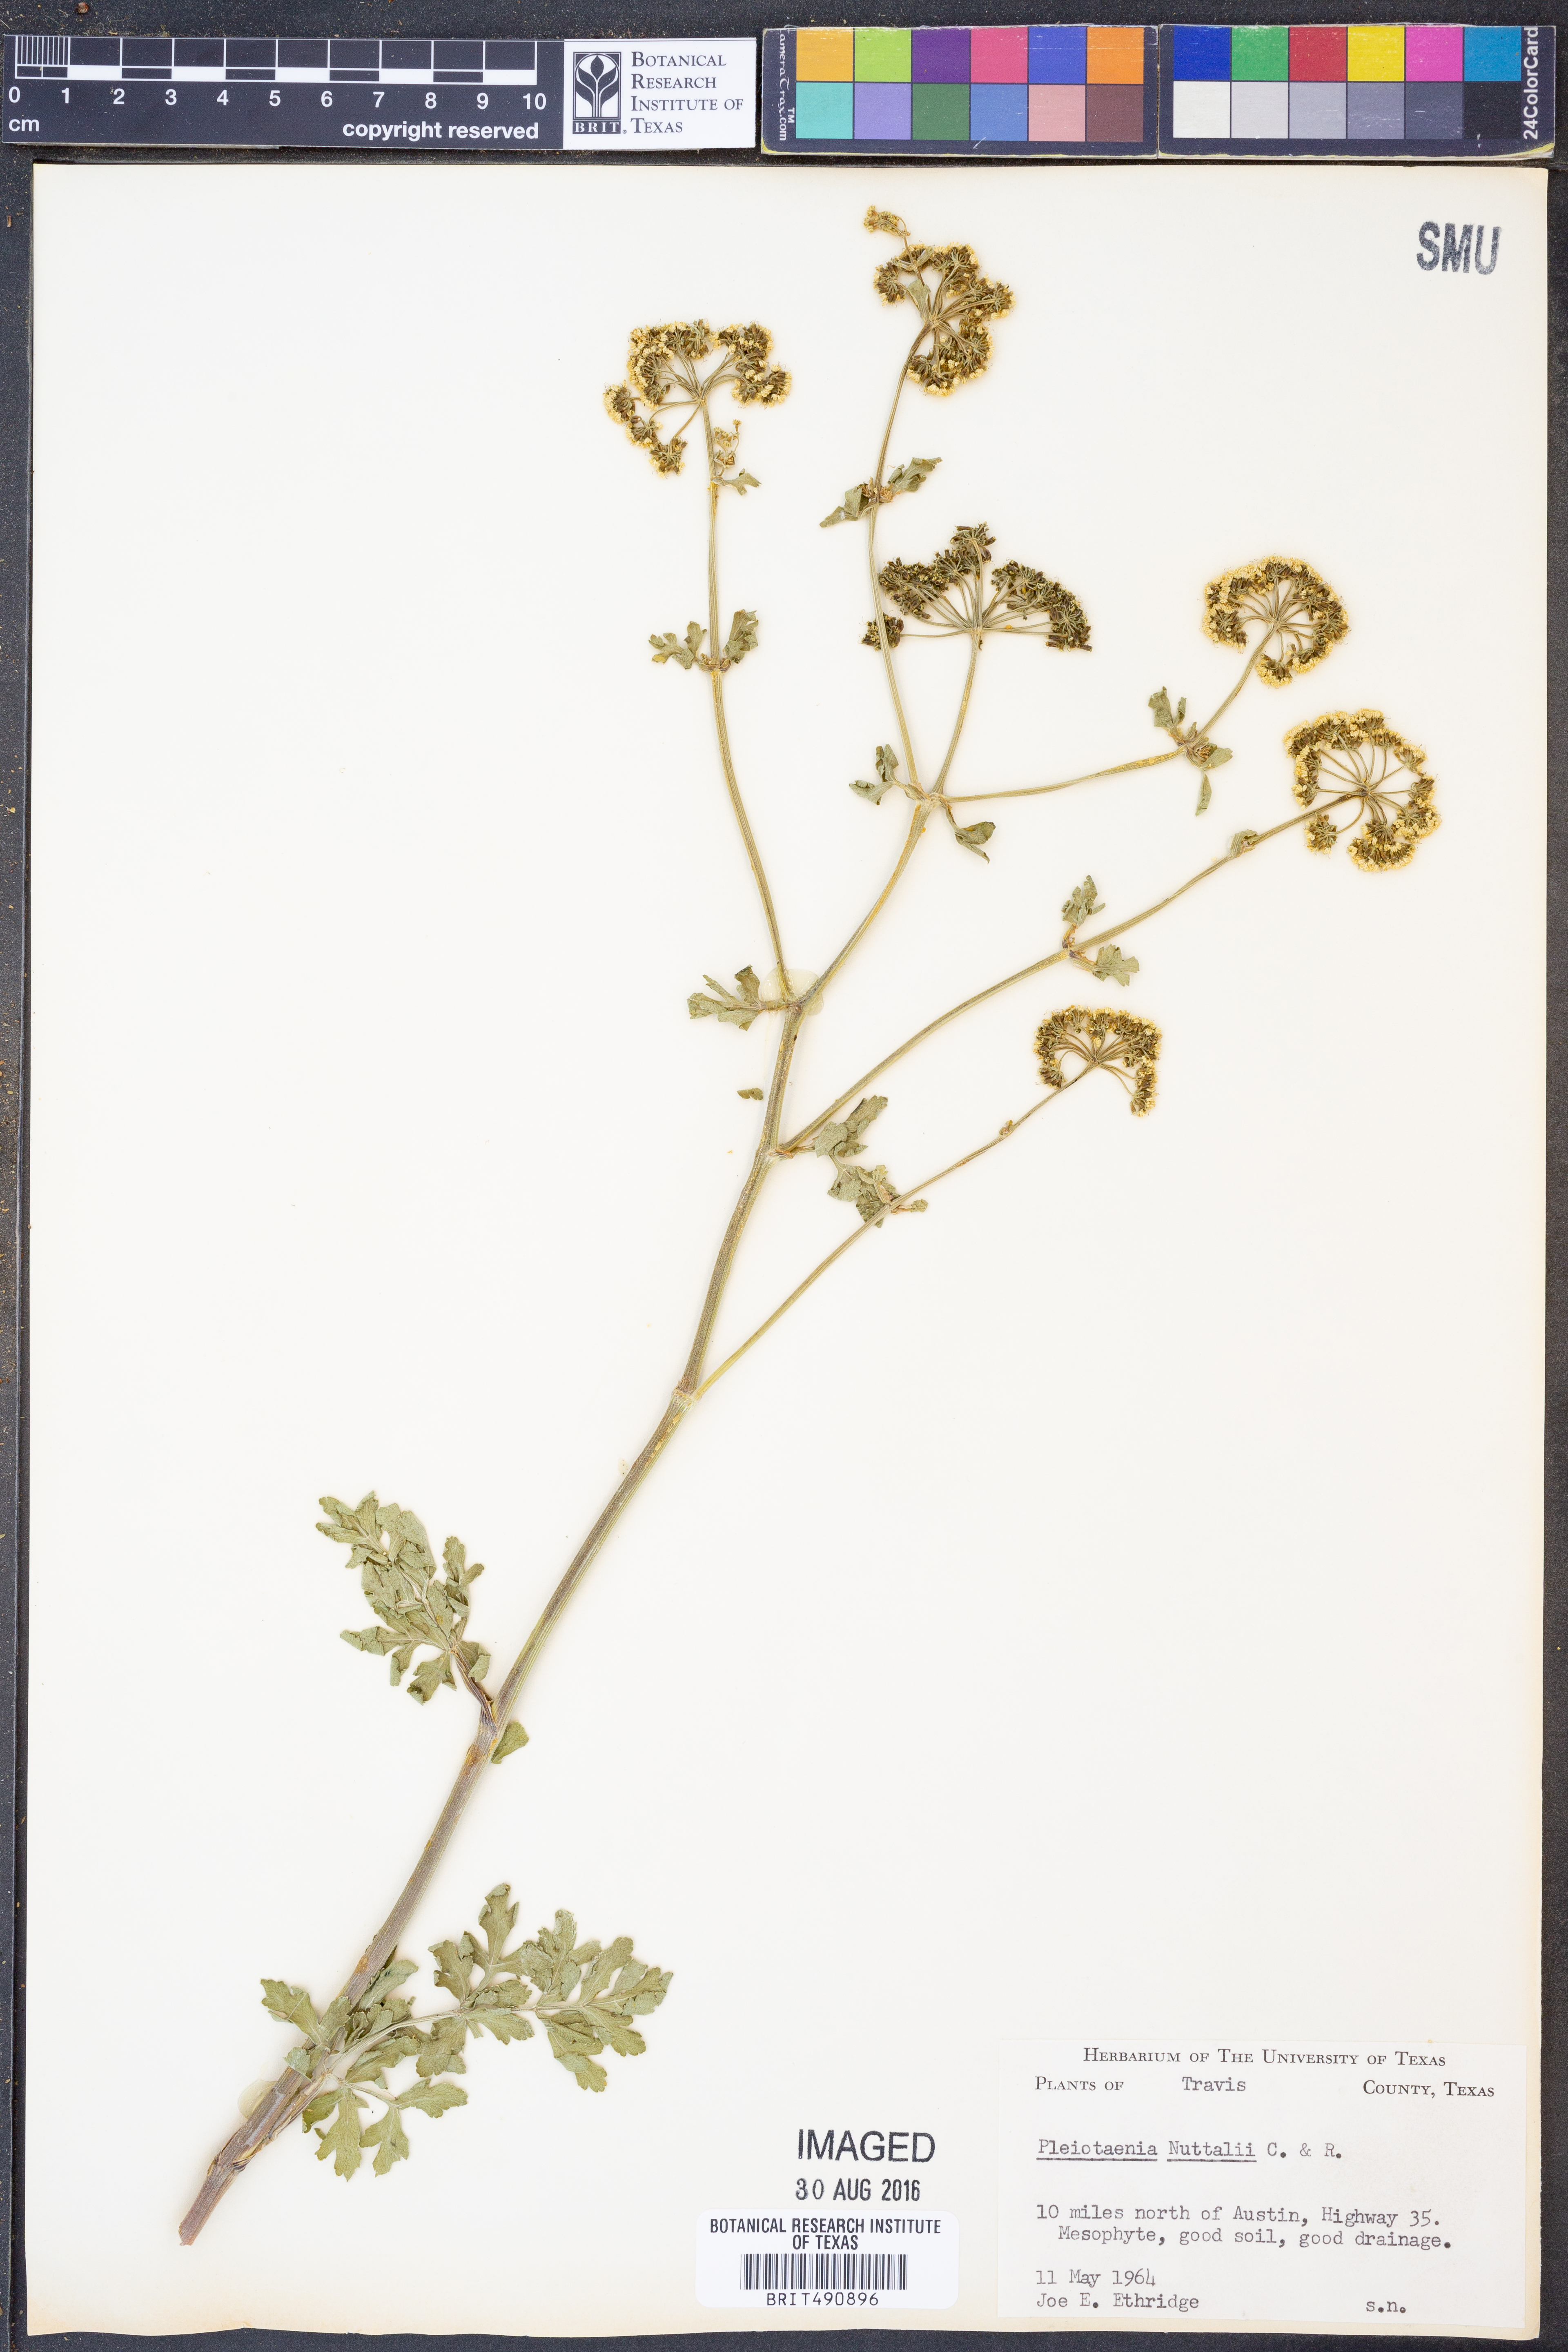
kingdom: Plantae
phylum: Tracheophyta
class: Magnoliopsida
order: Apiales
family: Apiaceae
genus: Polytaenia
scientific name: Polytaenia nuttallii
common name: Prairie-parsley
